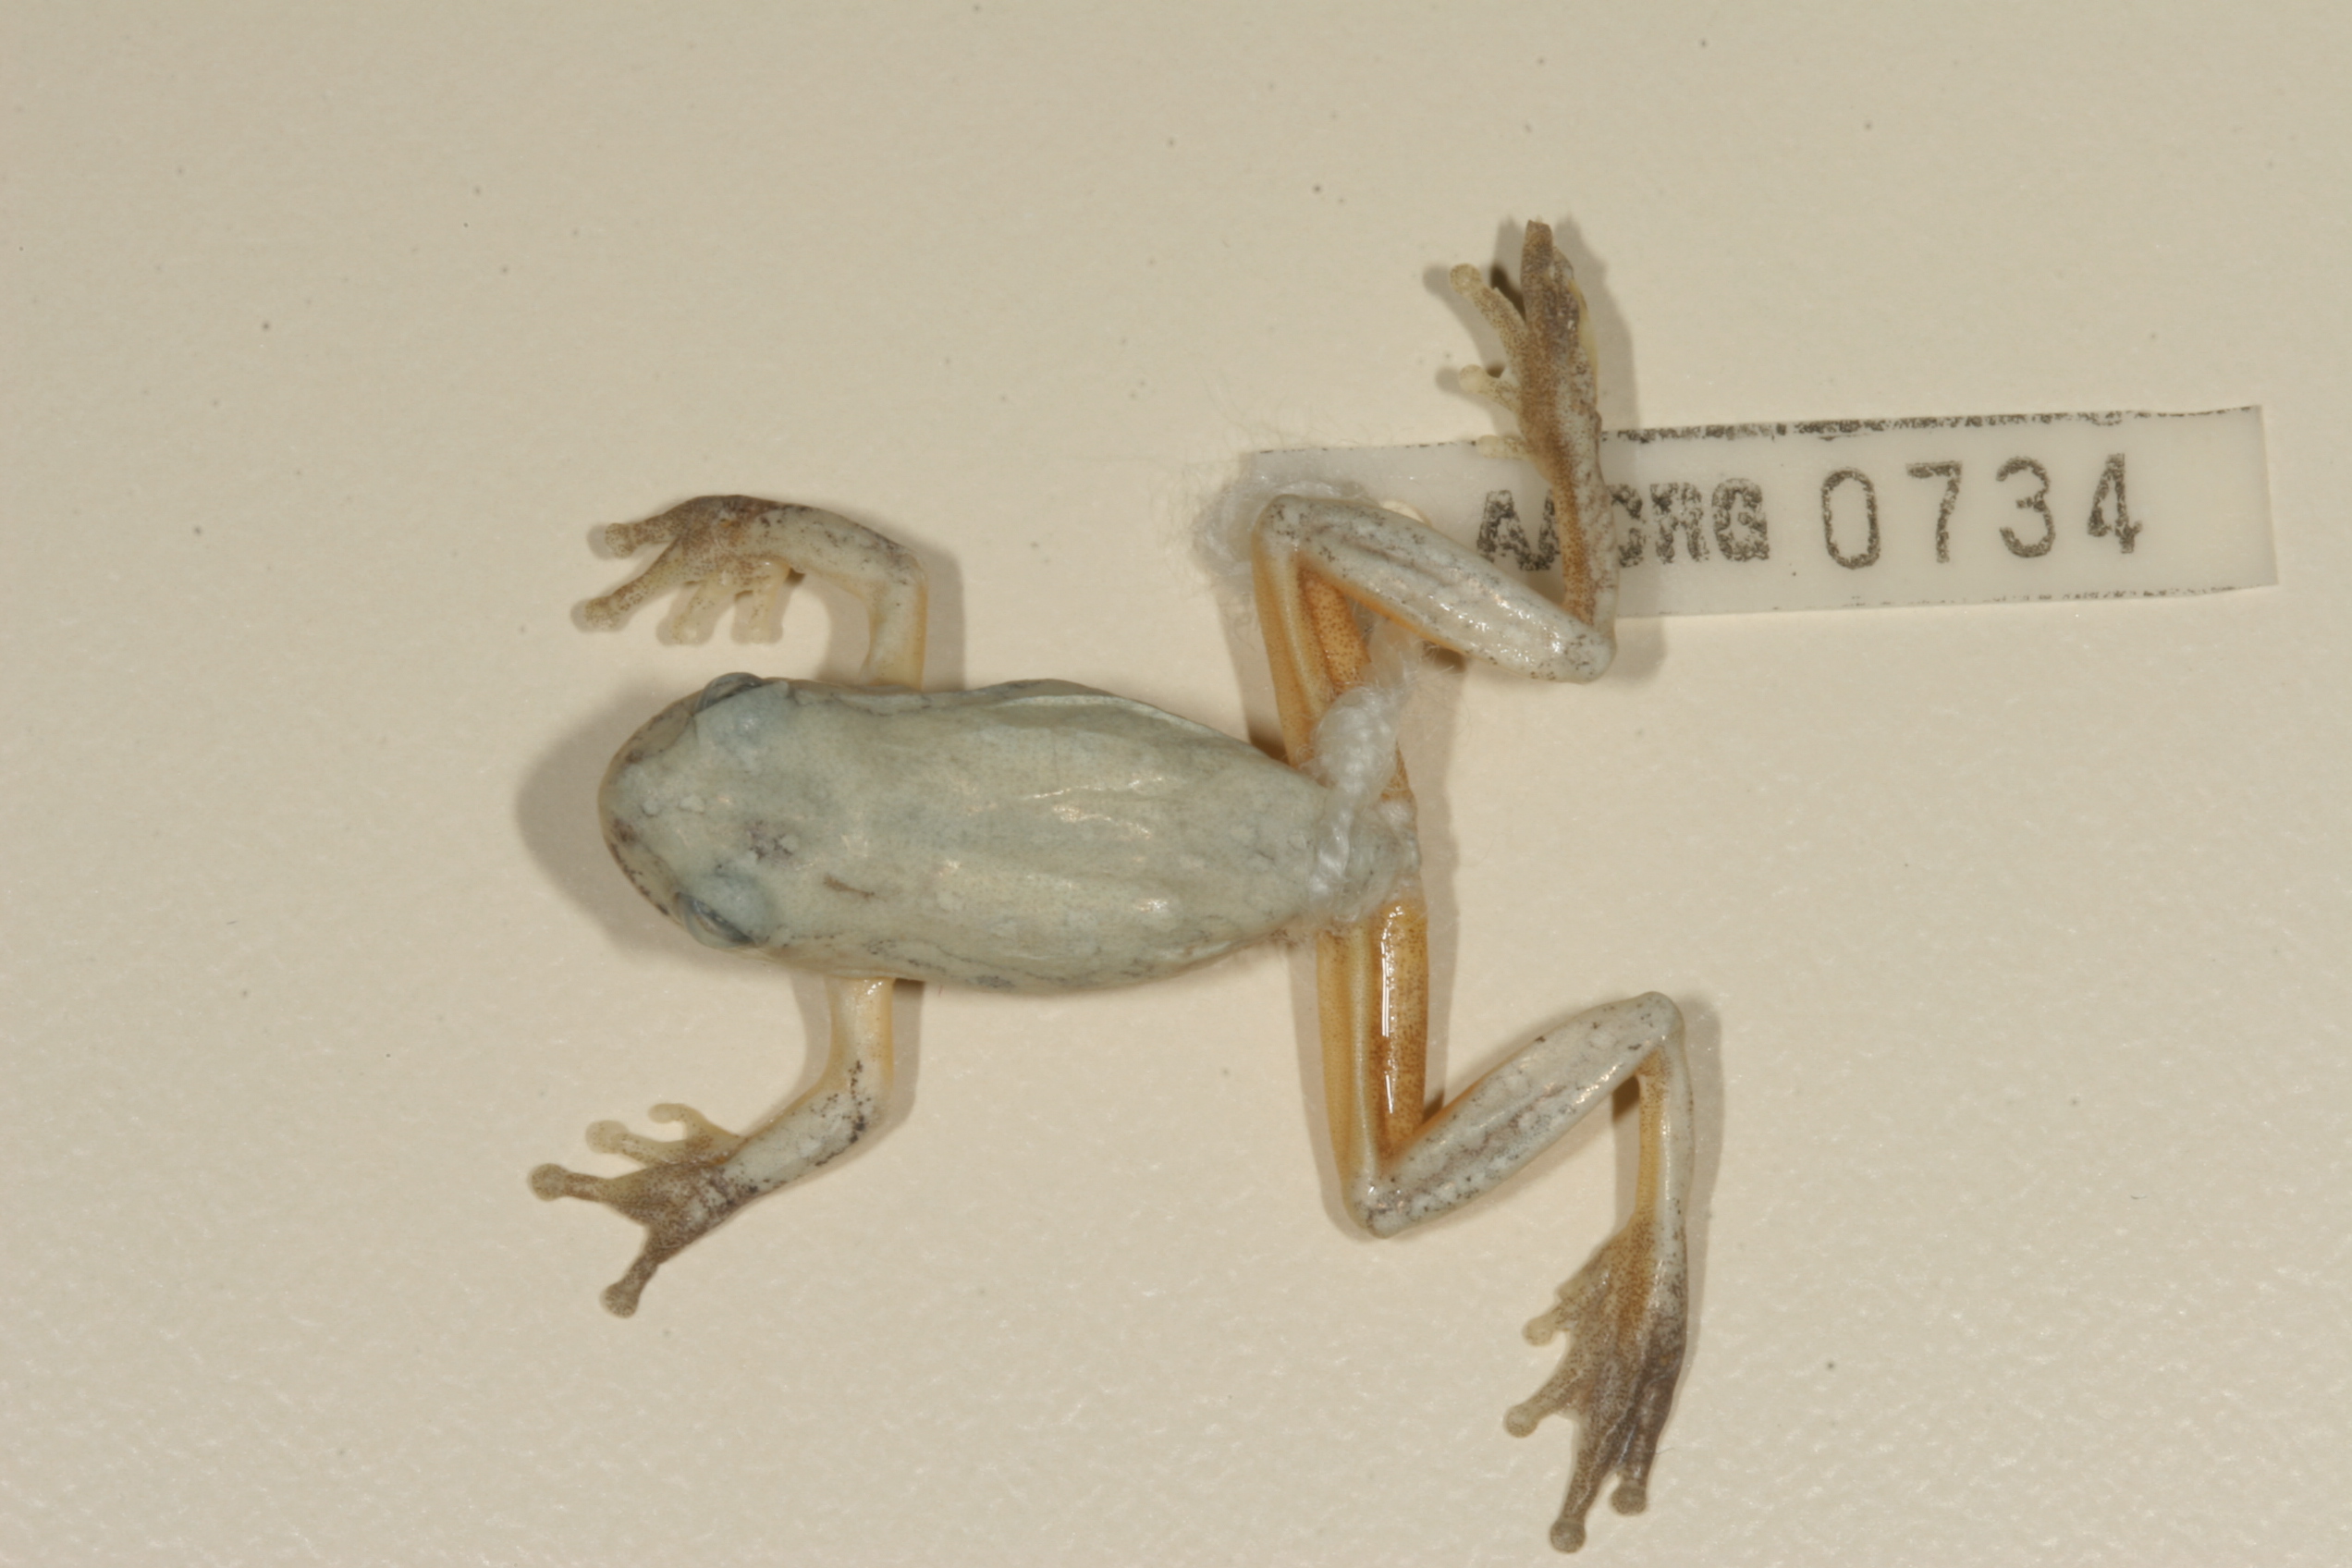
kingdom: Animalia
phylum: Chordata
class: Amphibia
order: Anura
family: Hyperoliidae
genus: Hyperolius
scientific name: Hyperolius marmoratus
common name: Painted reed frog
